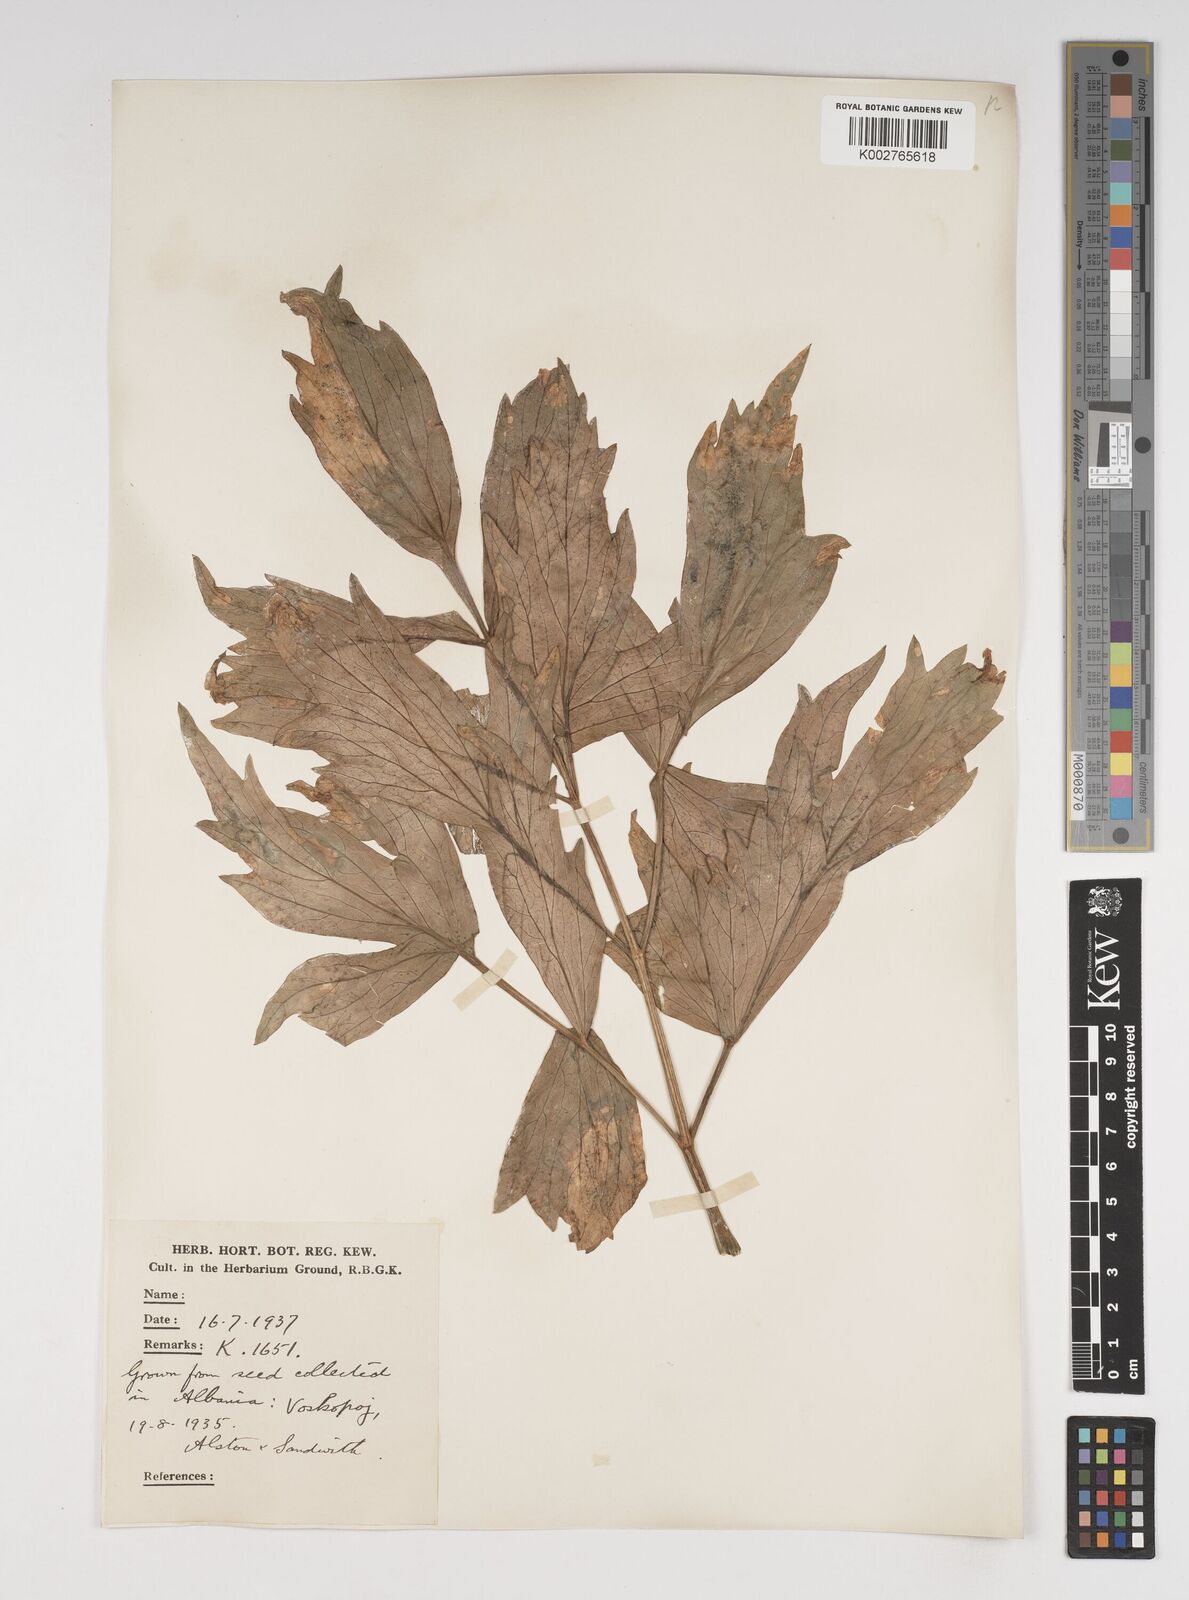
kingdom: Plantae
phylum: Tracheophyta
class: Magnoliopsida
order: Apiales
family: Apiaceae
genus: Levisticum
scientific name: Levisticum officinale
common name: Lovage
